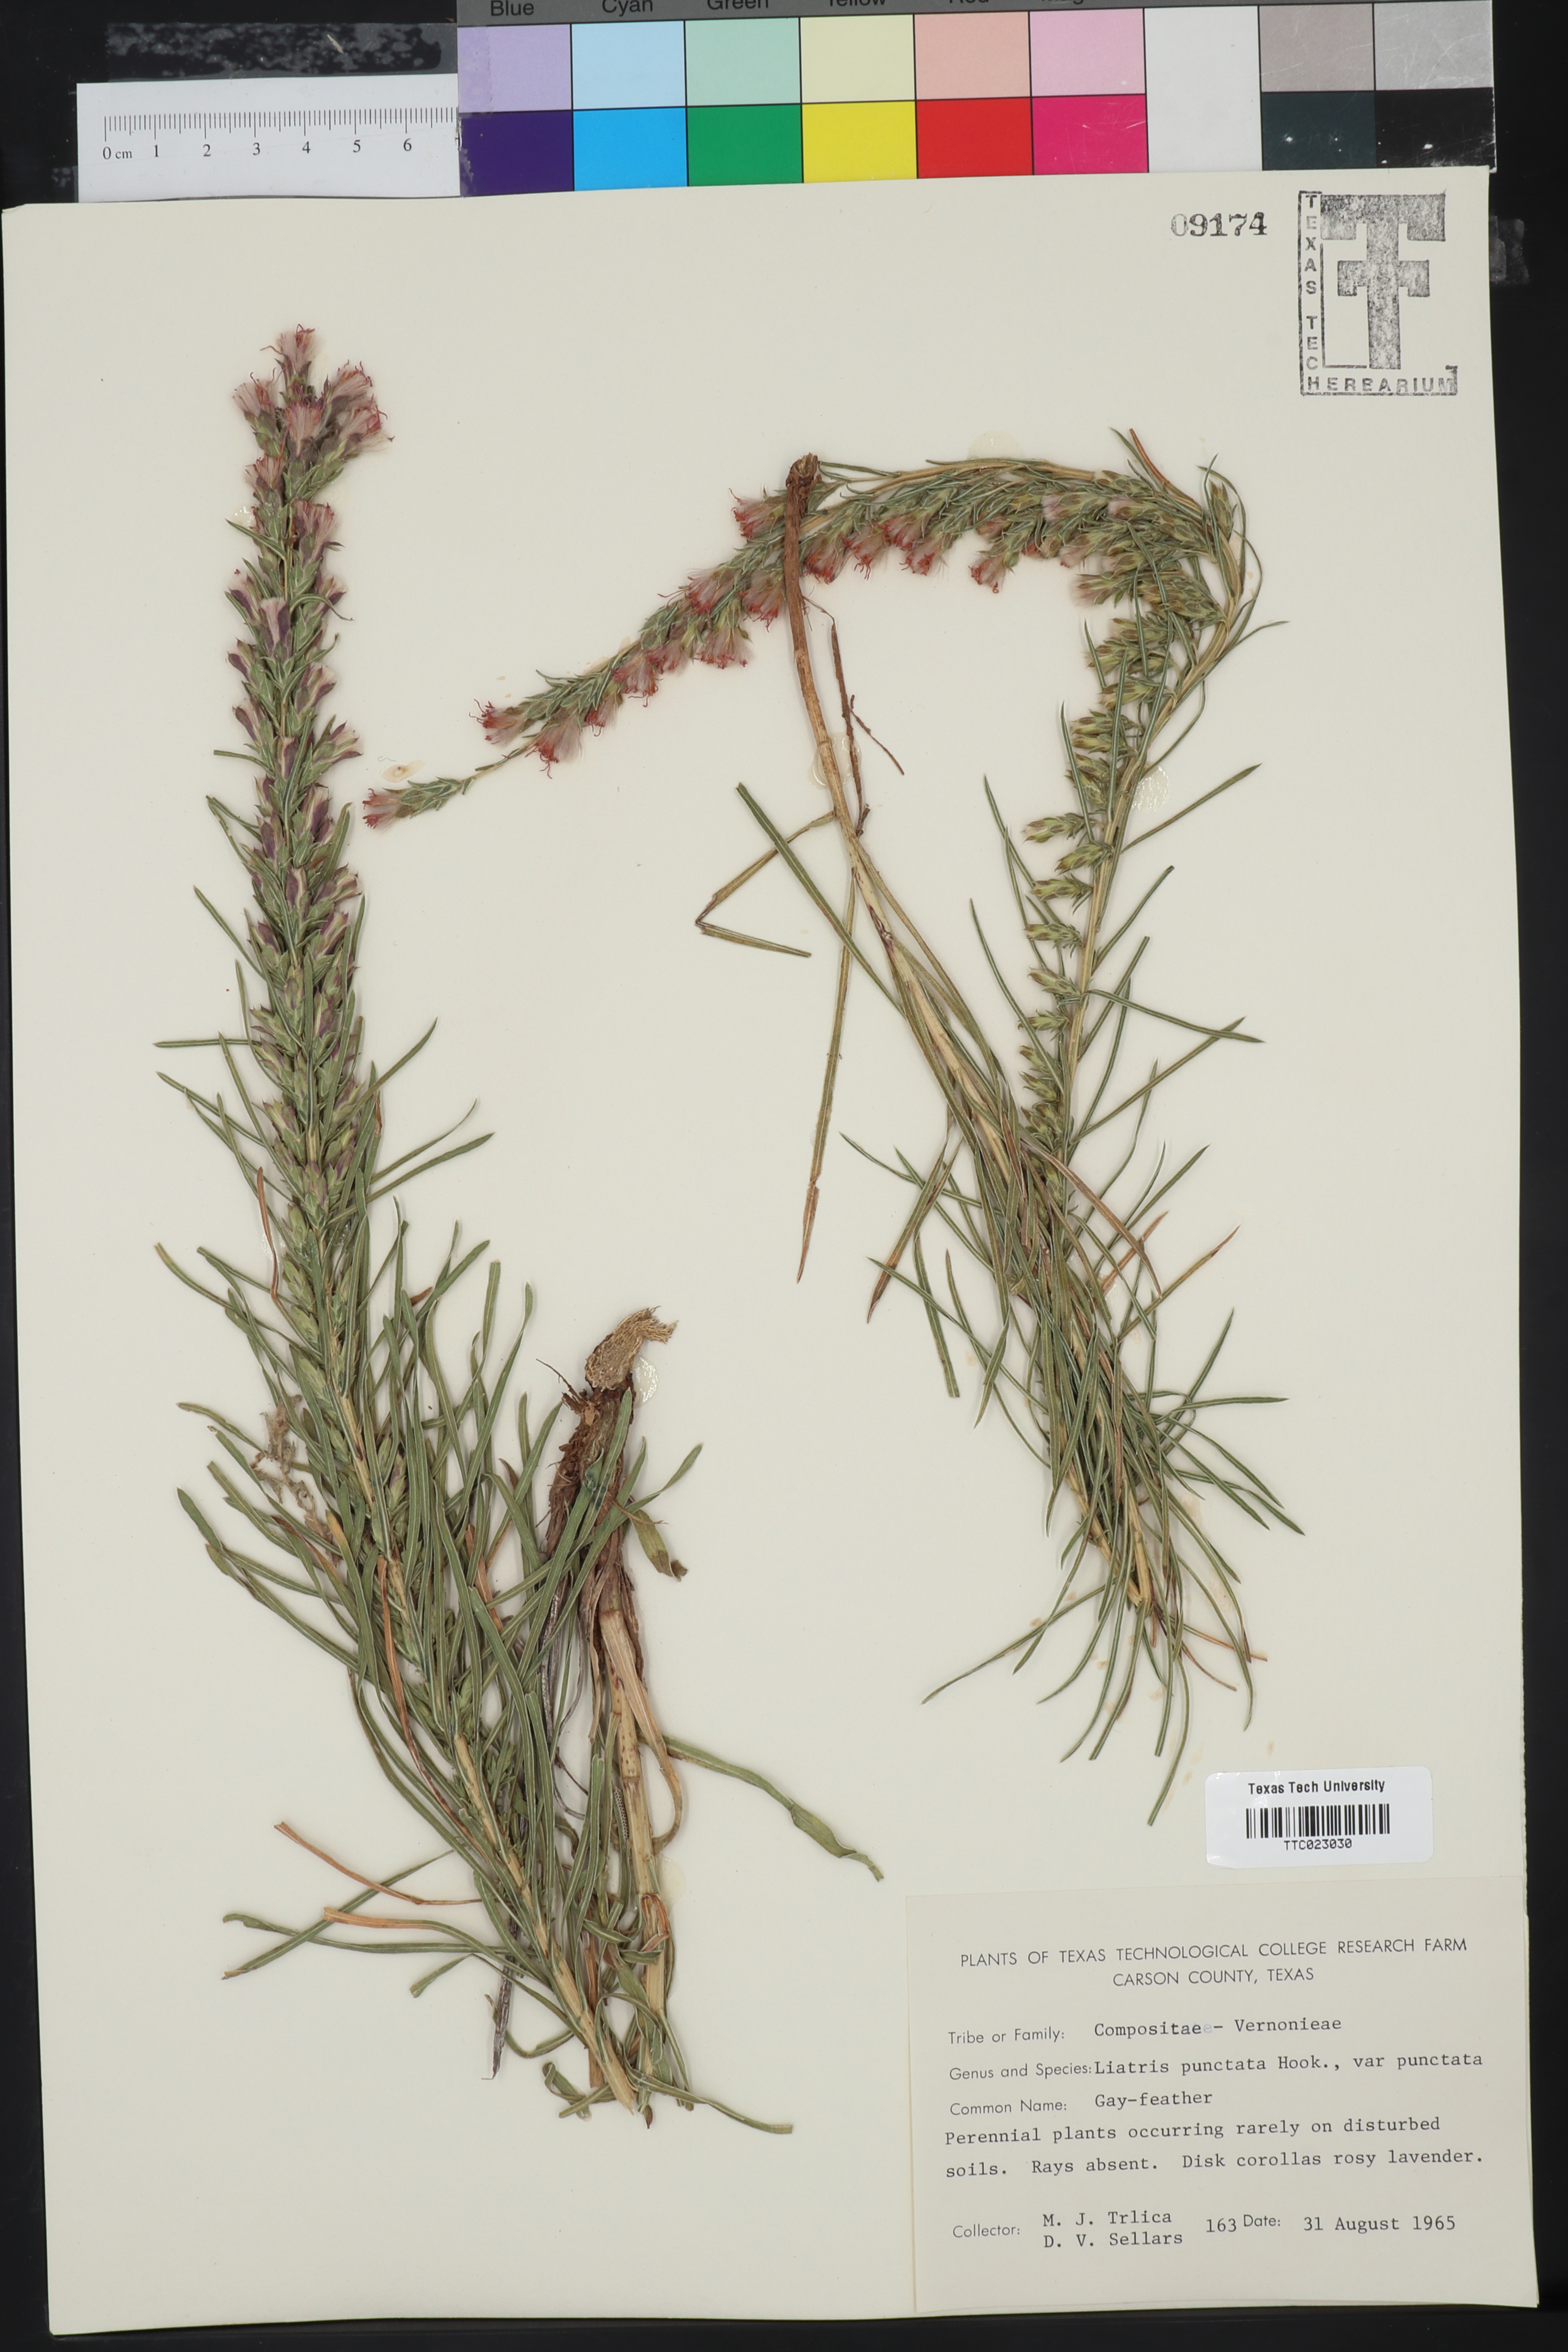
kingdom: Plantae
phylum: Tracheophyta
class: Magnoliopsida
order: Asterales
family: Asteraceae
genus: Liatris
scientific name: Liatris punctata
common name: Dotted gayfeather
